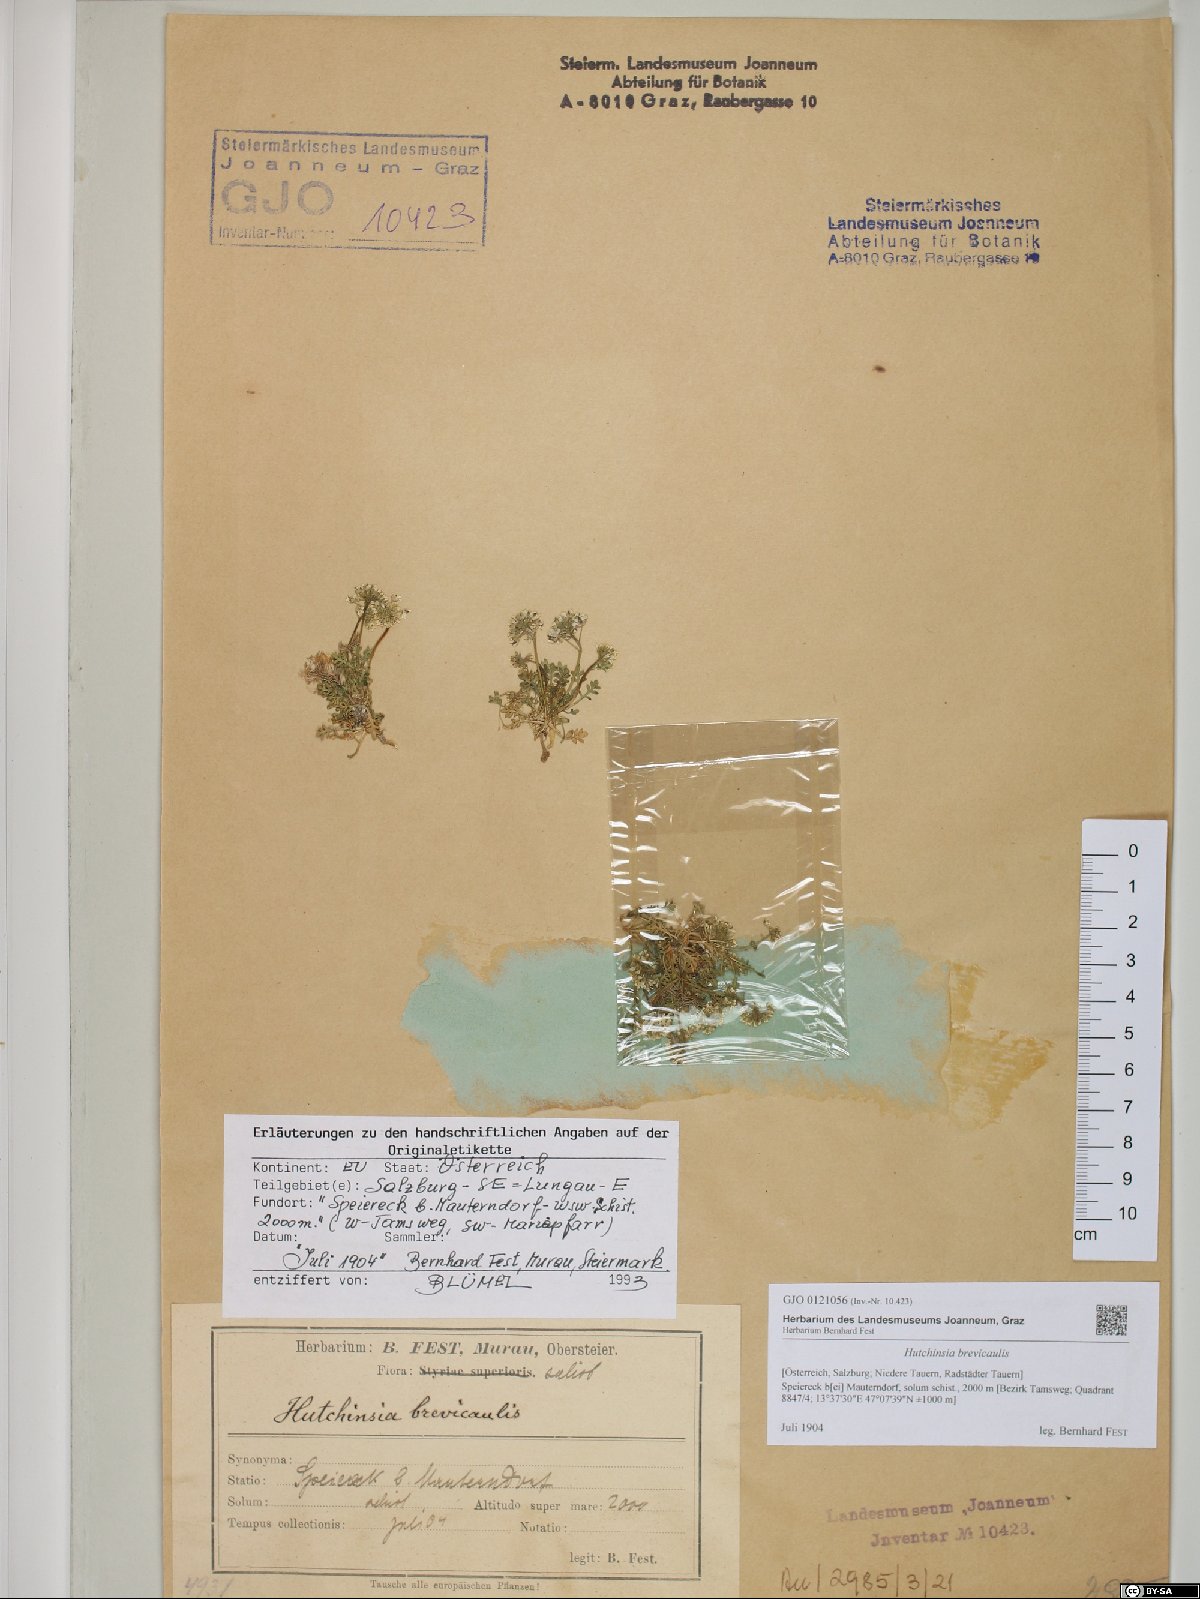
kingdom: Plantae
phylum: Tracheophyta
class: Magnoliopsida
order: Brassicales
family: Brassicaceae
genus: Hornungia
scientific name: Hornungia alpina
